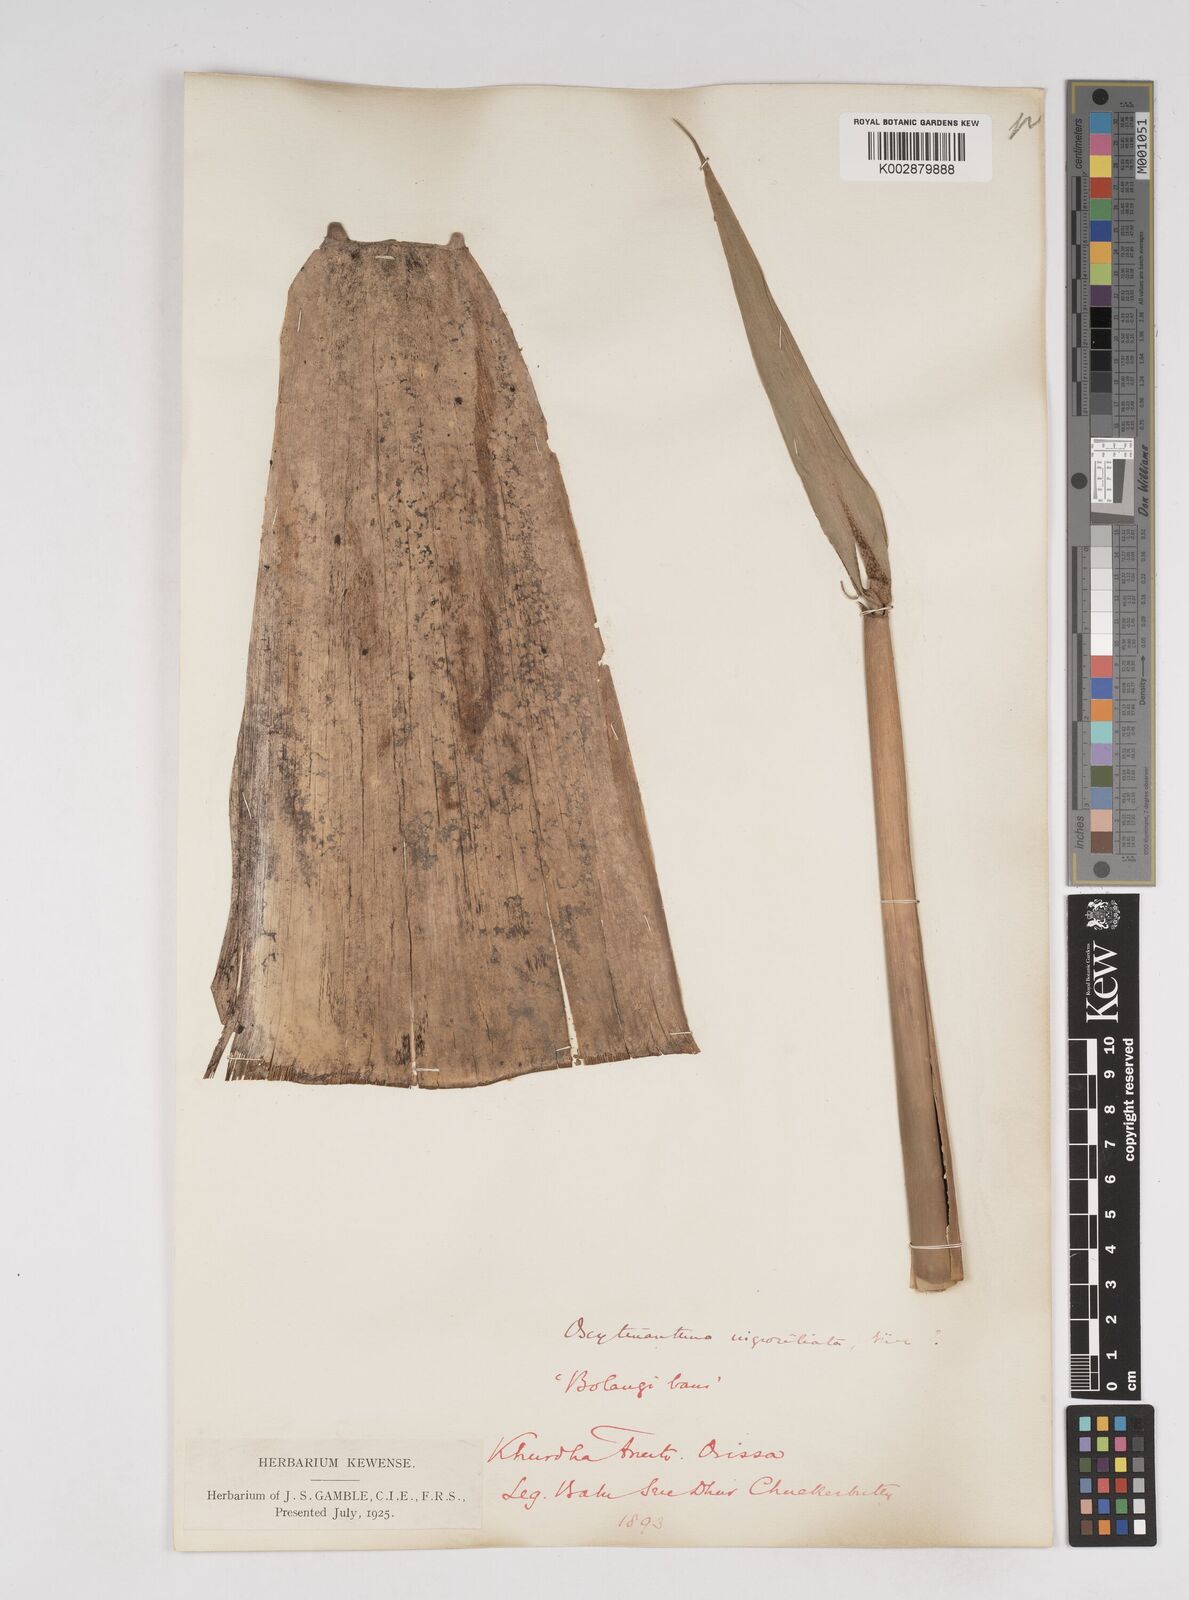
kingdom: Plantae
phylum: Tracheophyta
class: Liliopsida
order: Poales
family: Poaceae
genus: Gigantochloa
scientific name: Gigantochloa
